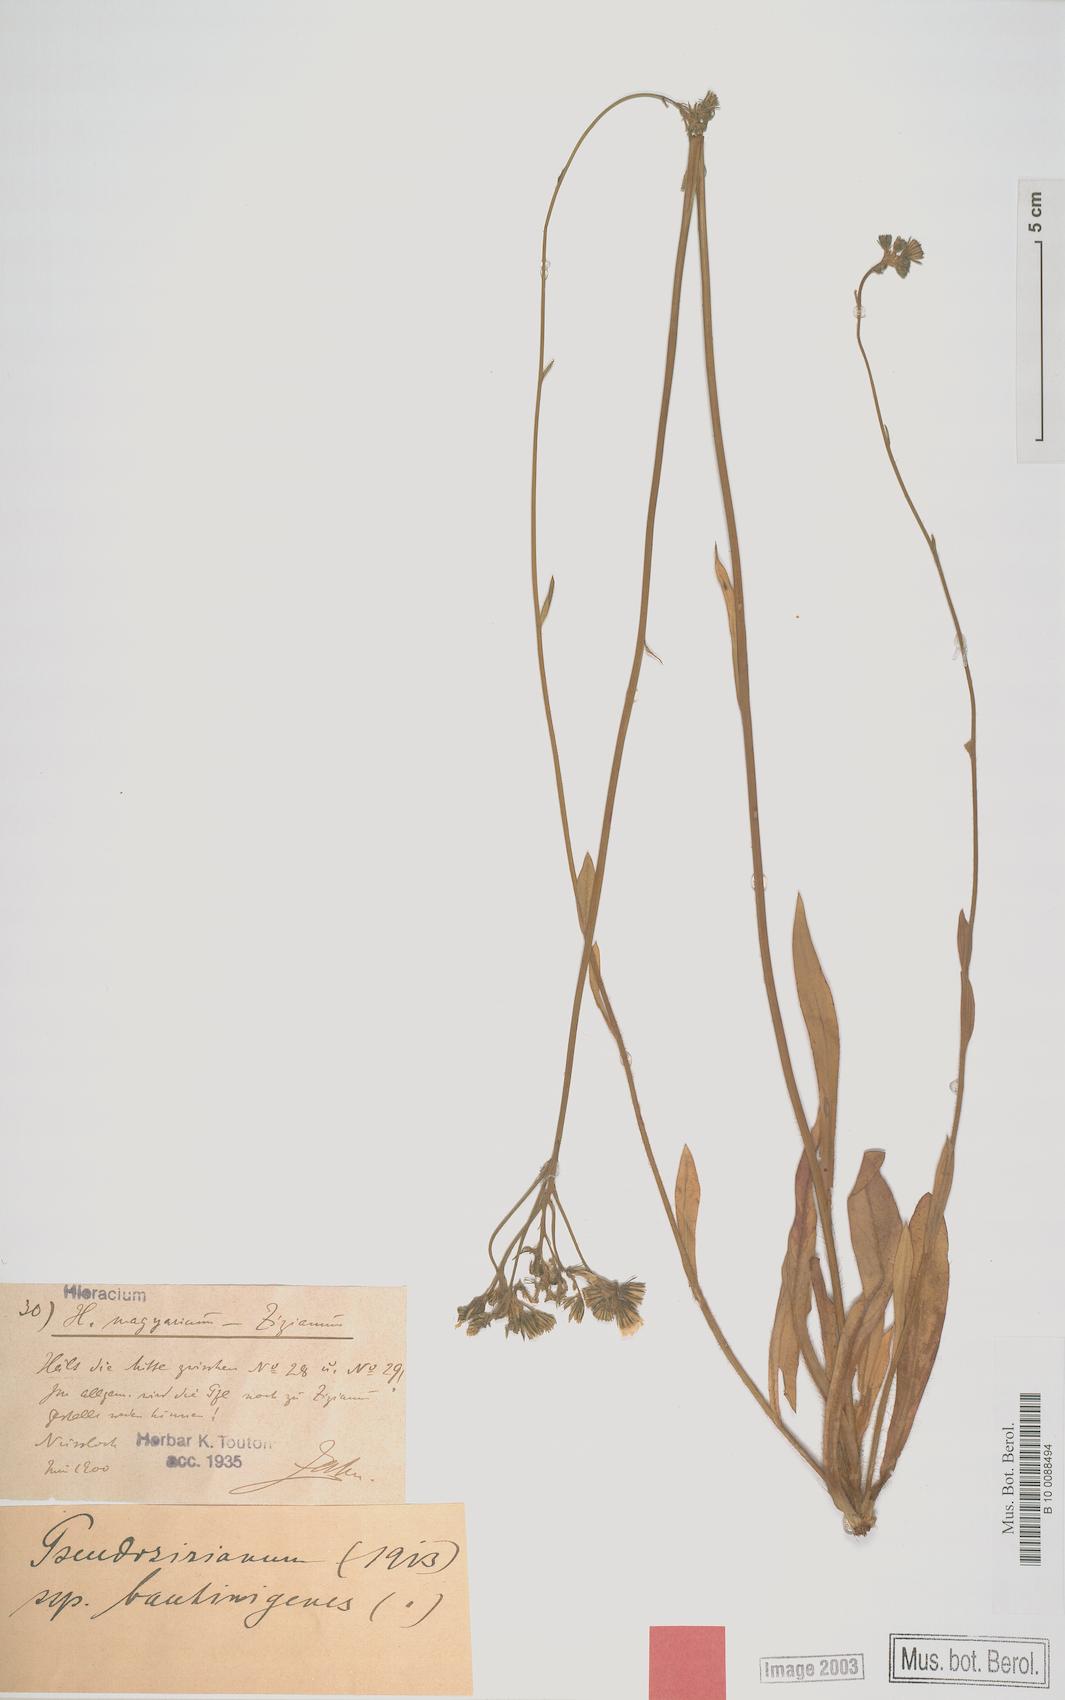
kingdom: Plantae
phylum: Tracheophyta
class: Magnoliopsida
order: Asterales
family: Asteraceae
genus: Hieracium
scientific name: Hieracium
